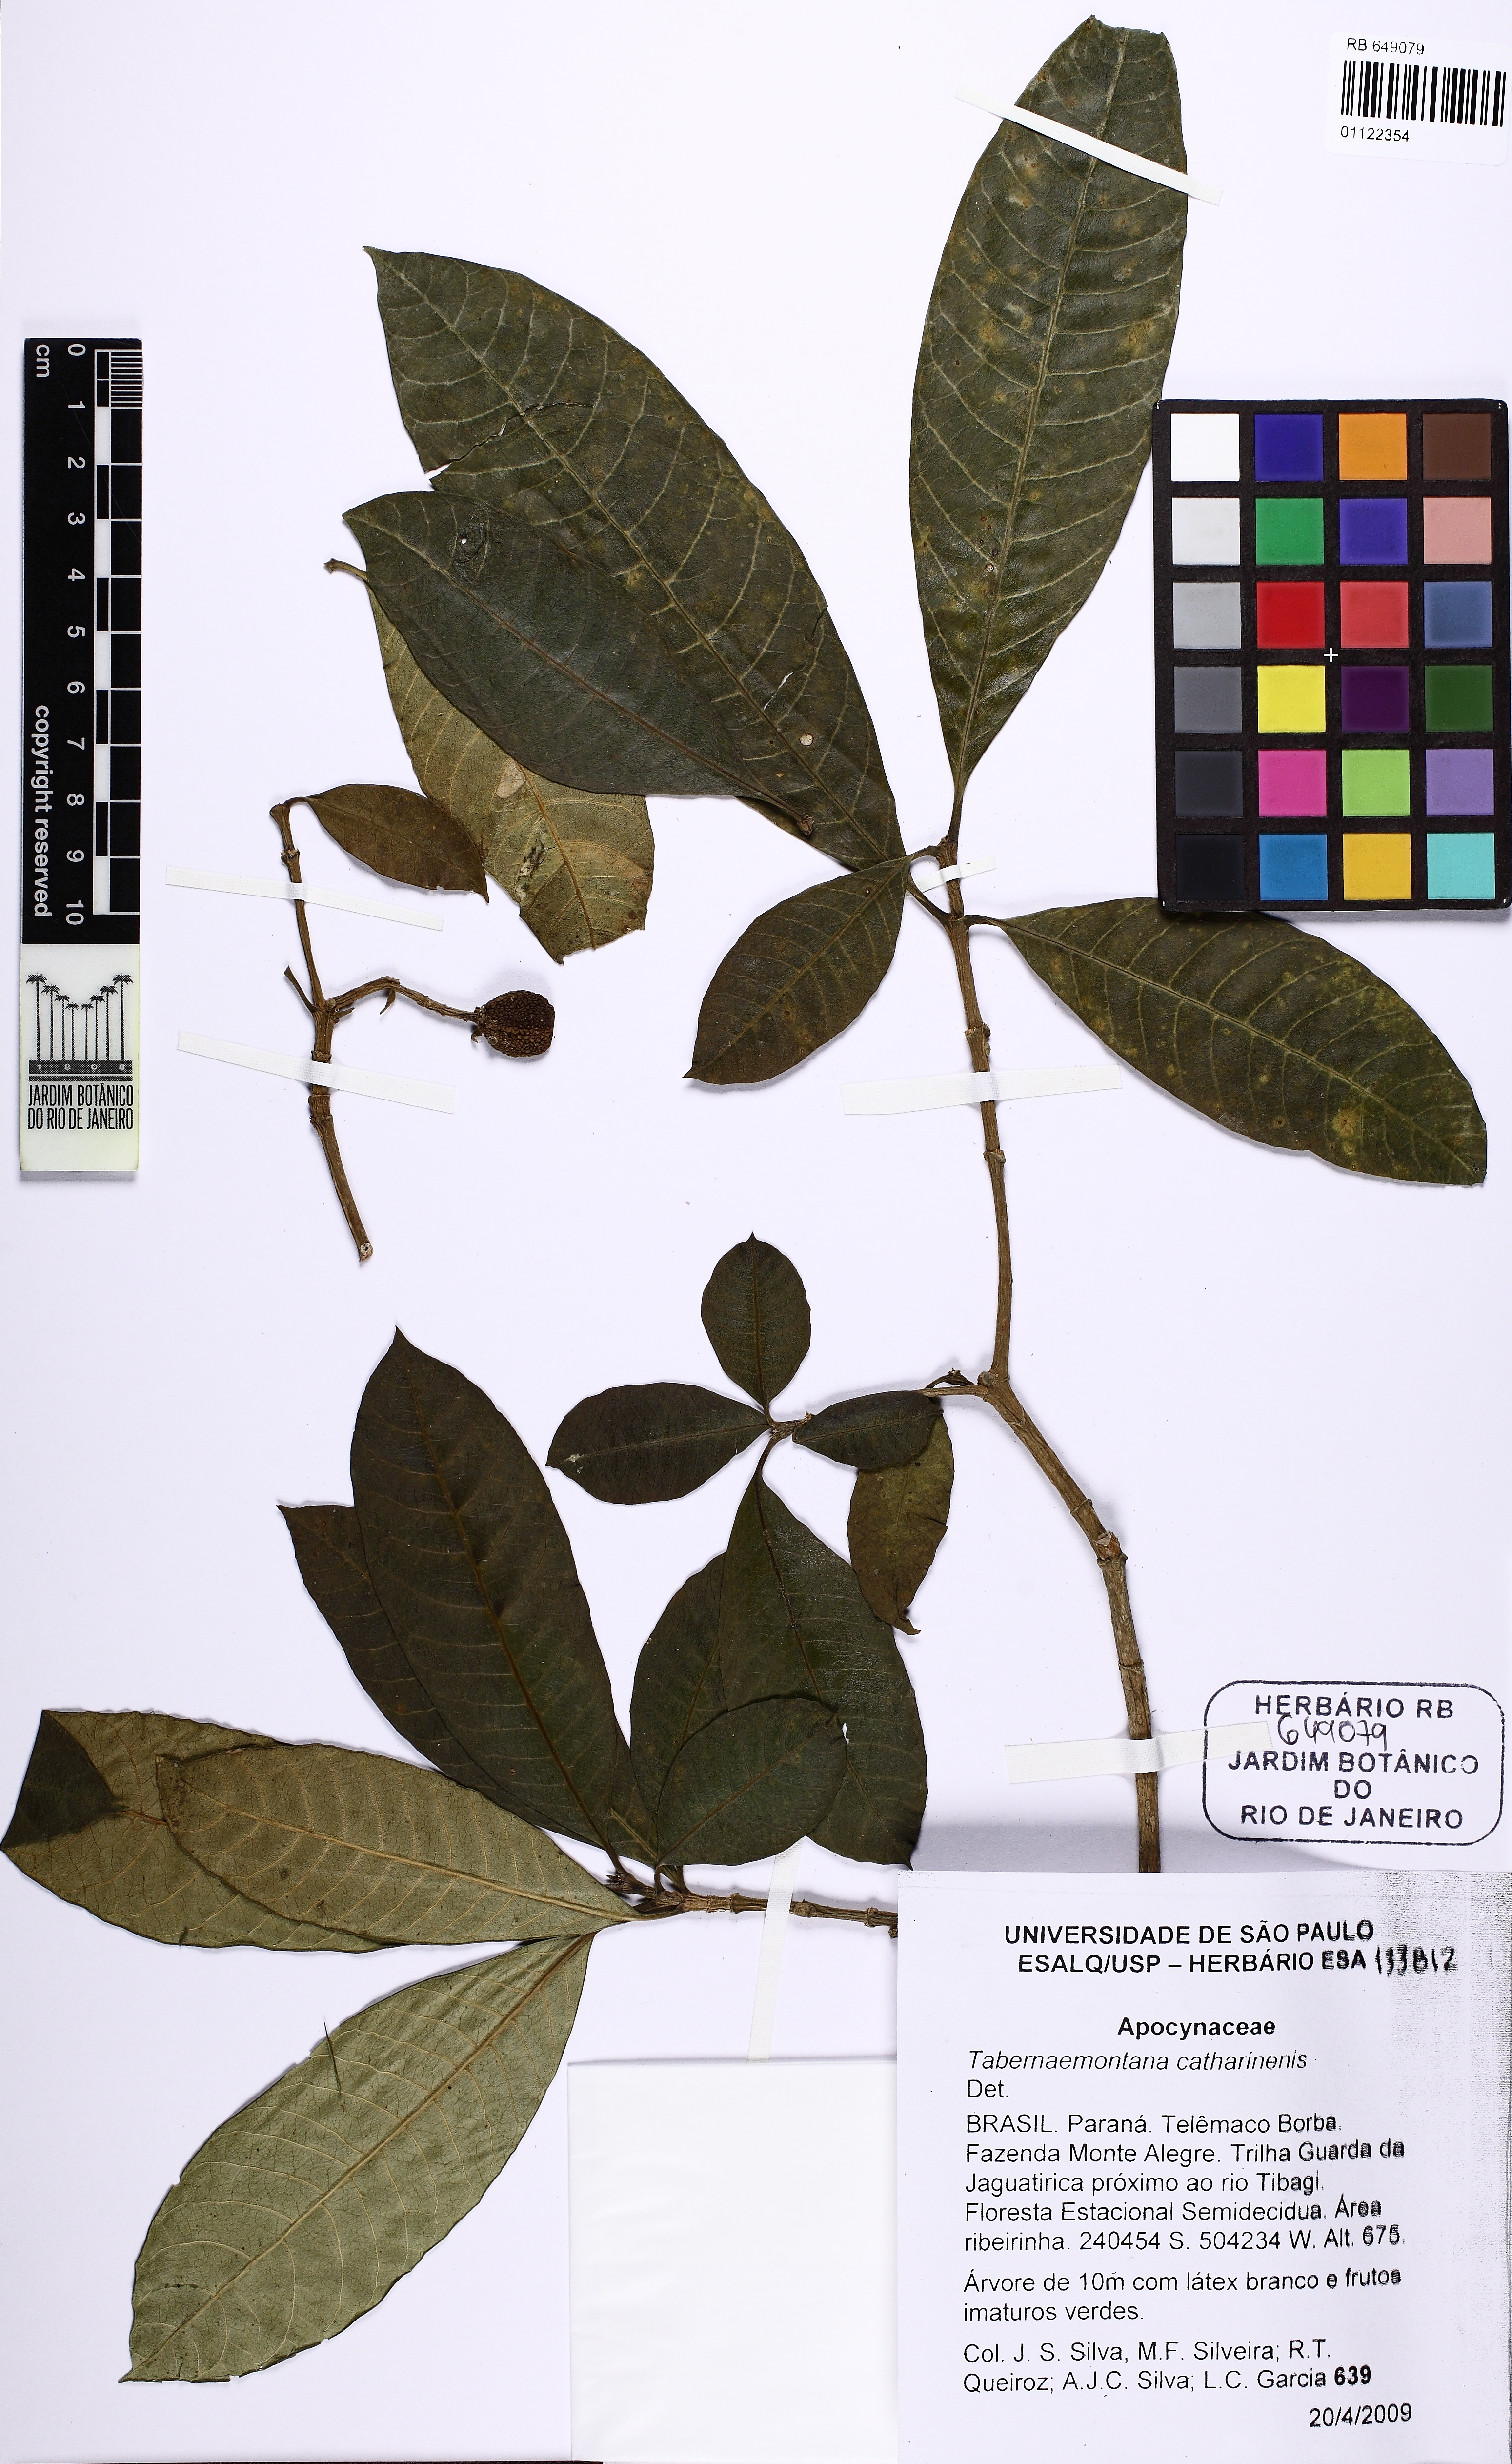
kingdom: Plantae
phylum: Tracheophyta
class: Magnoliopsida
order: Gentianales
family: Apocynaceae
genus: Tabernaemontana
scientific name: Tabernaemontana catharinensis
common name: Pinwheel-flower
